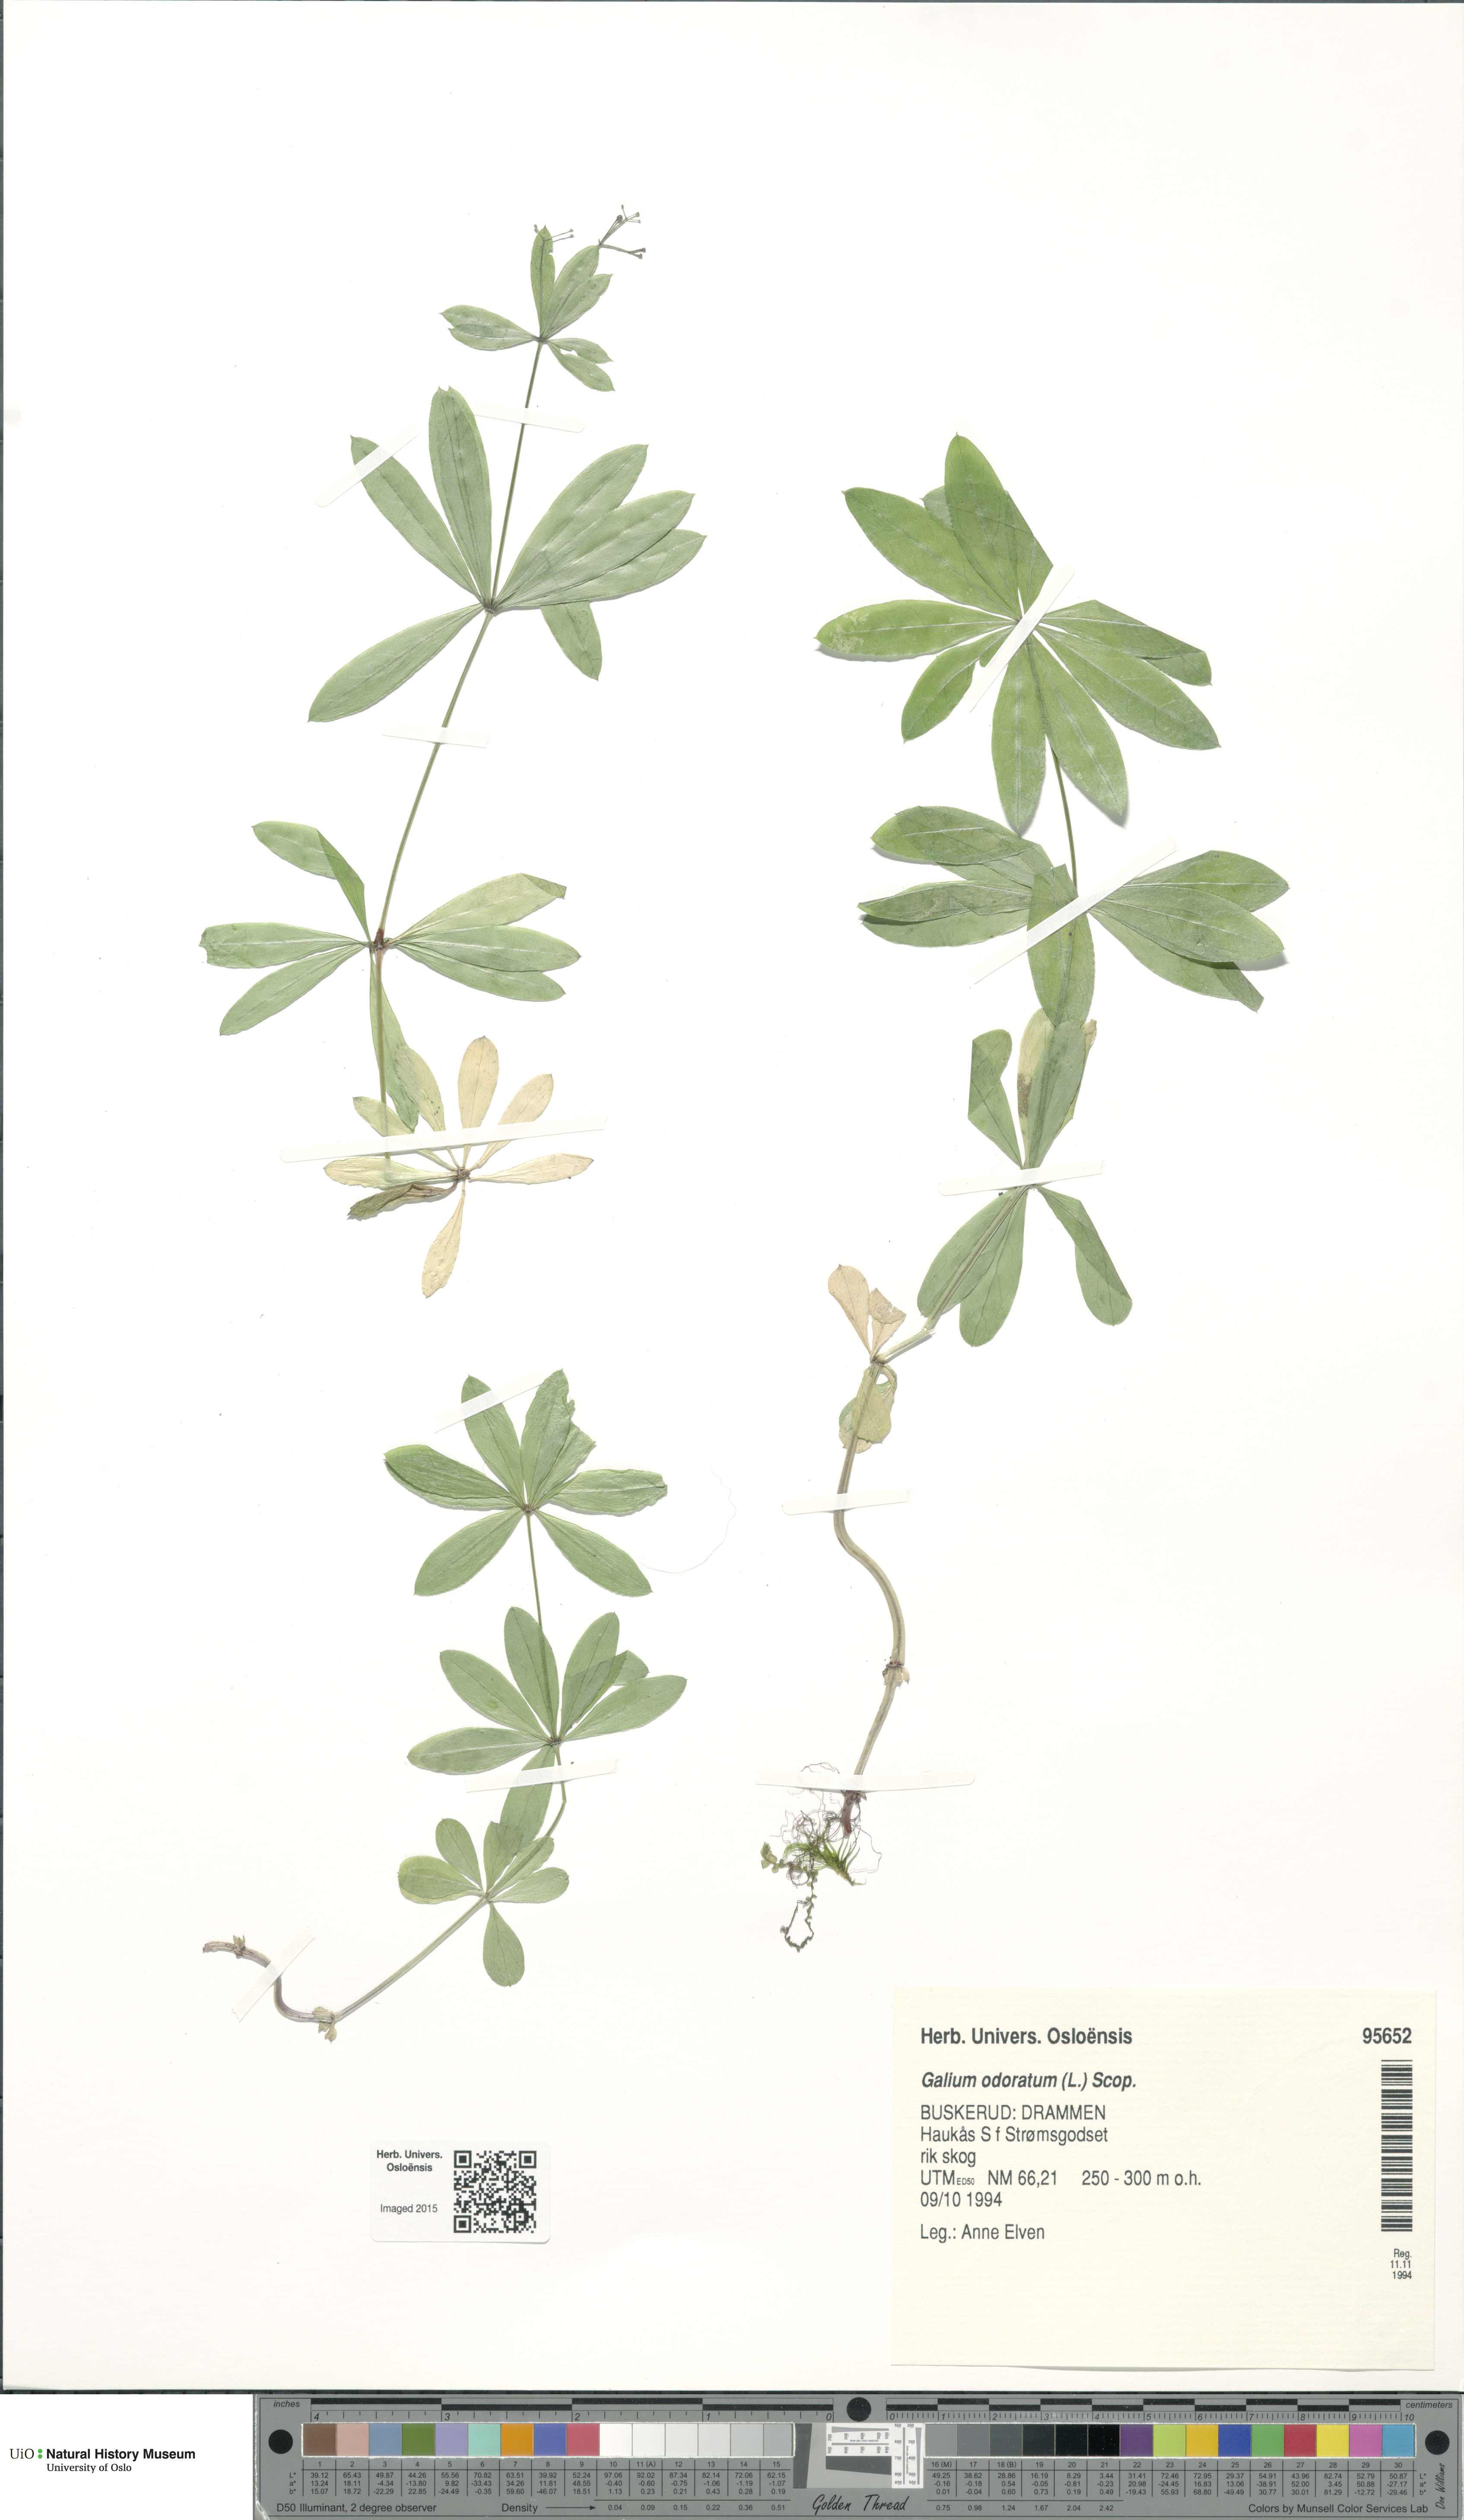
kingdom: Plantae
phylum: Tracheophyta
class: Magnoliopsida
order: Gentianales
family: Rubiaceae
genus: Galium
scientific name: Galium odoratum
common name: Sweet woodruff
